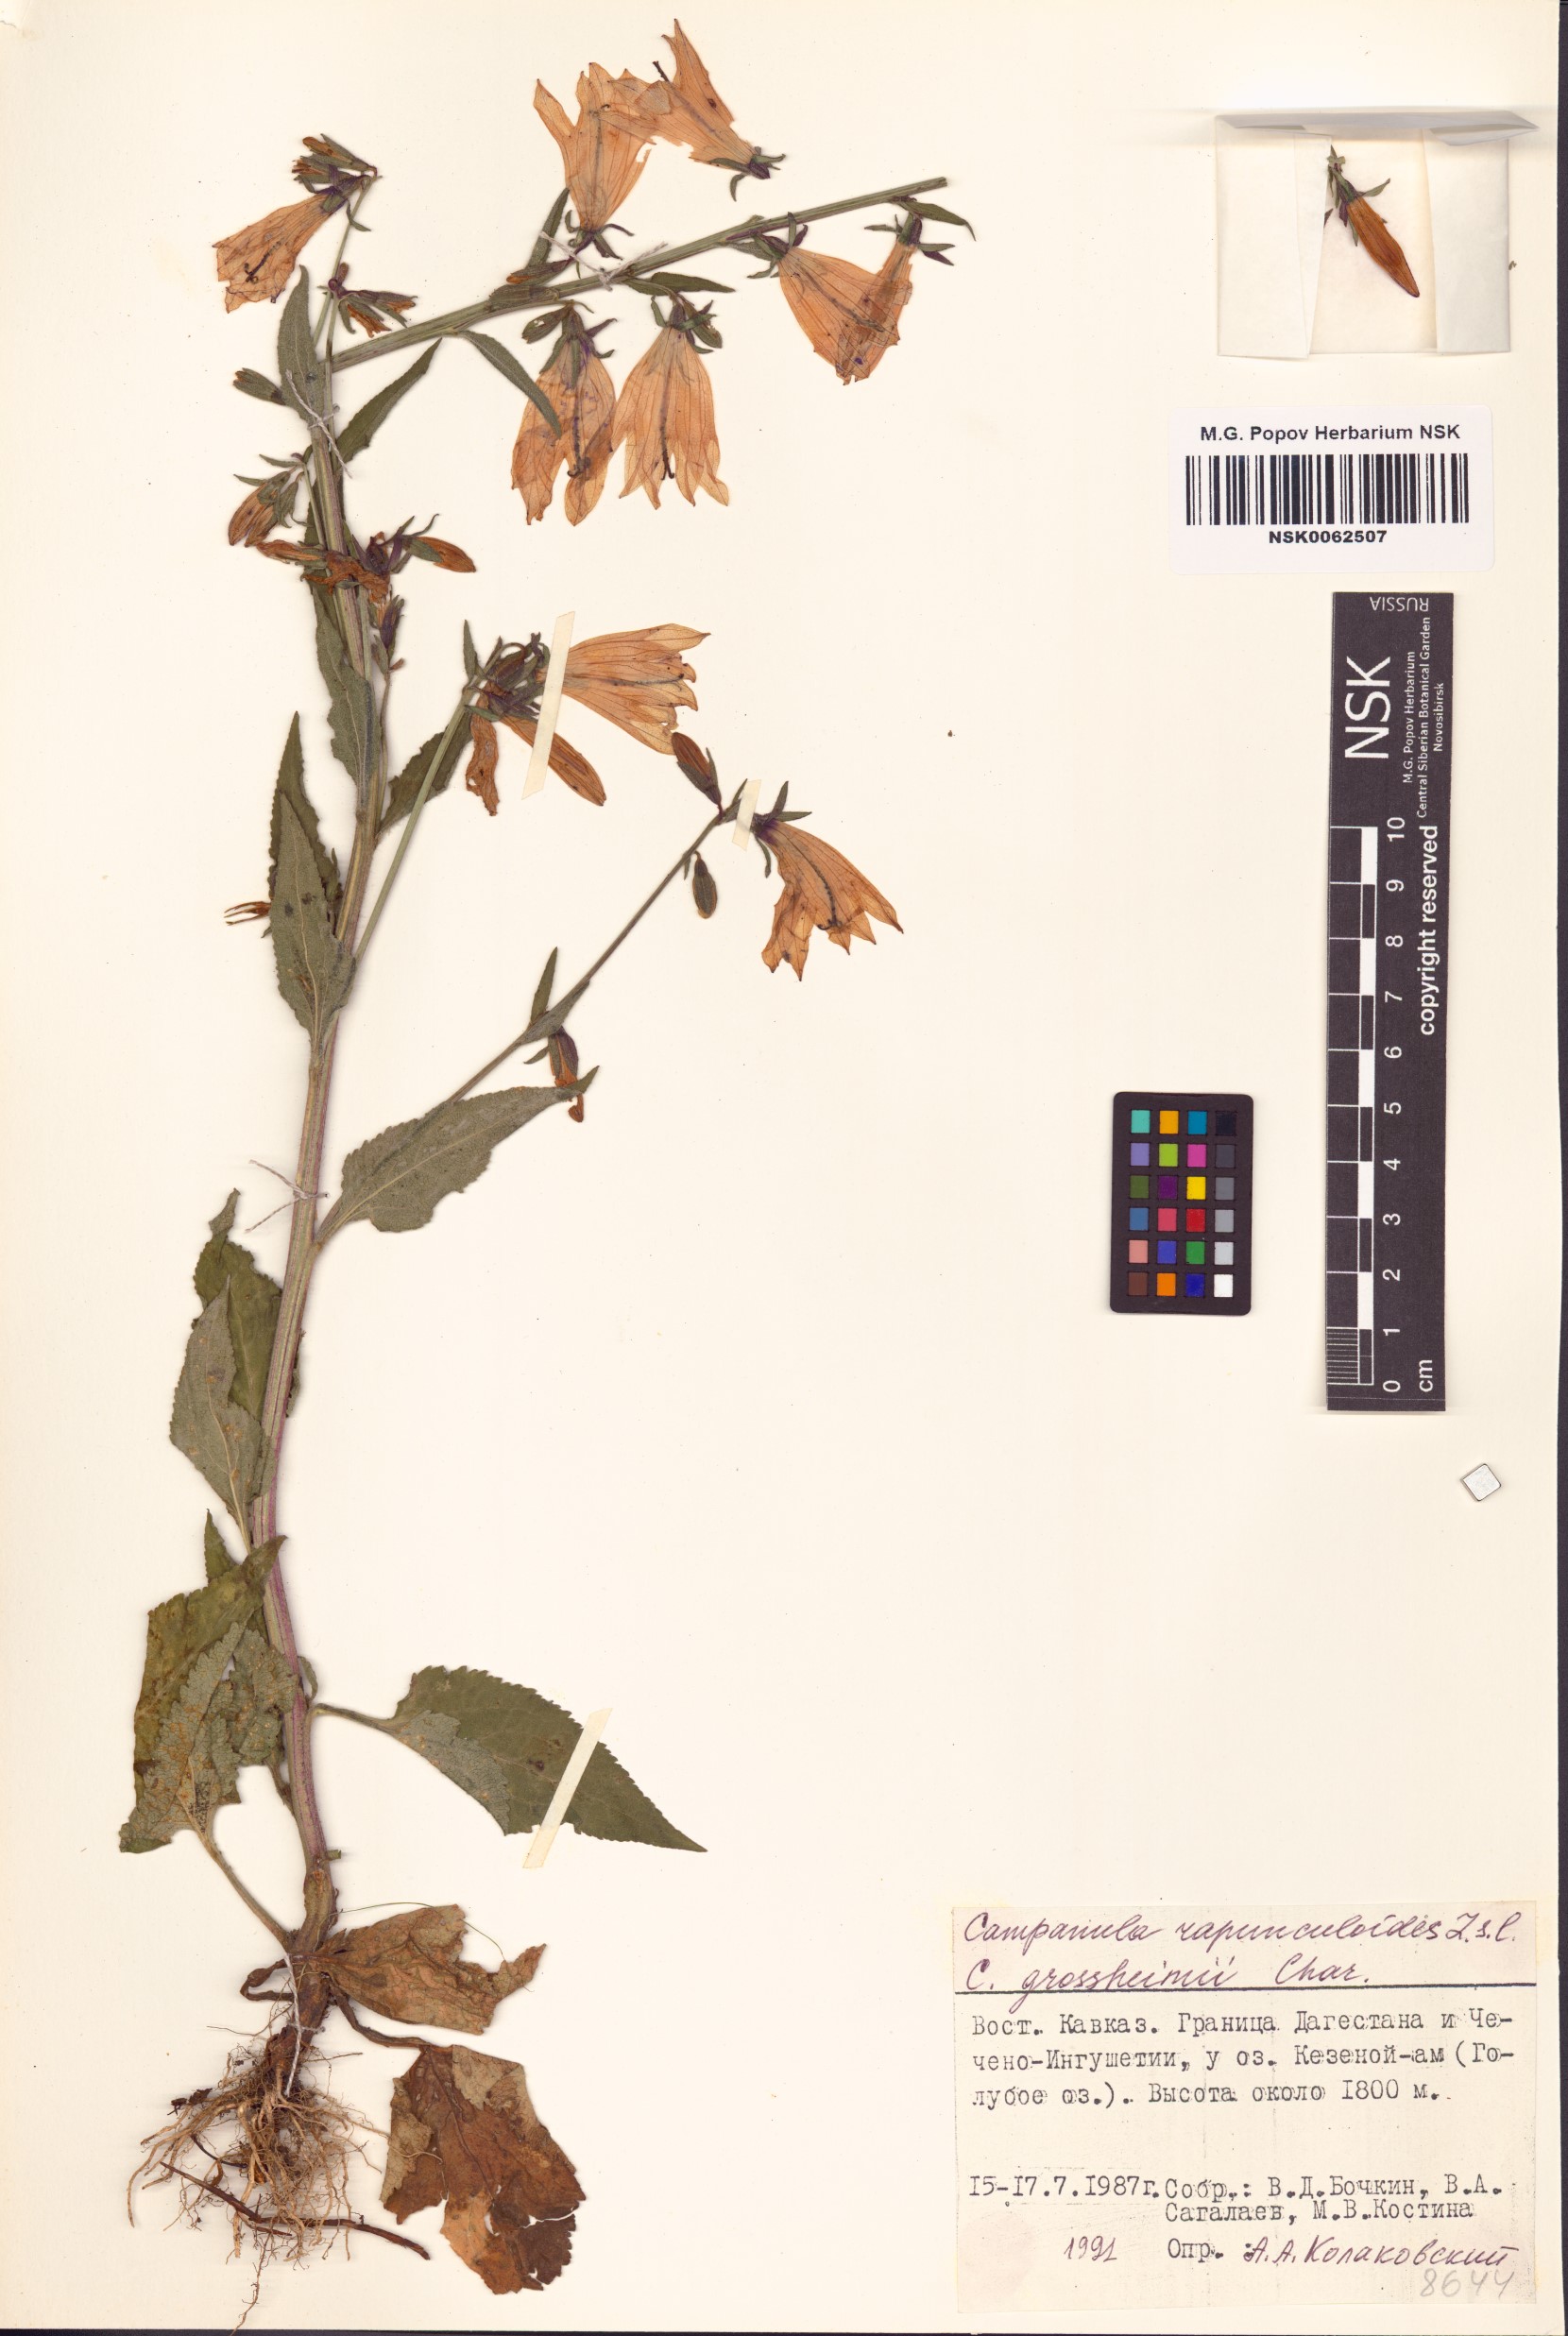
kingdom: Plantae
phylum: Tracheophyta
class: Magnoliopsida
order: Asterales
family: Campanulaceae
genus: Campanula
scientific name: Campanula rapunculoides
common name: Creeping bellflower
